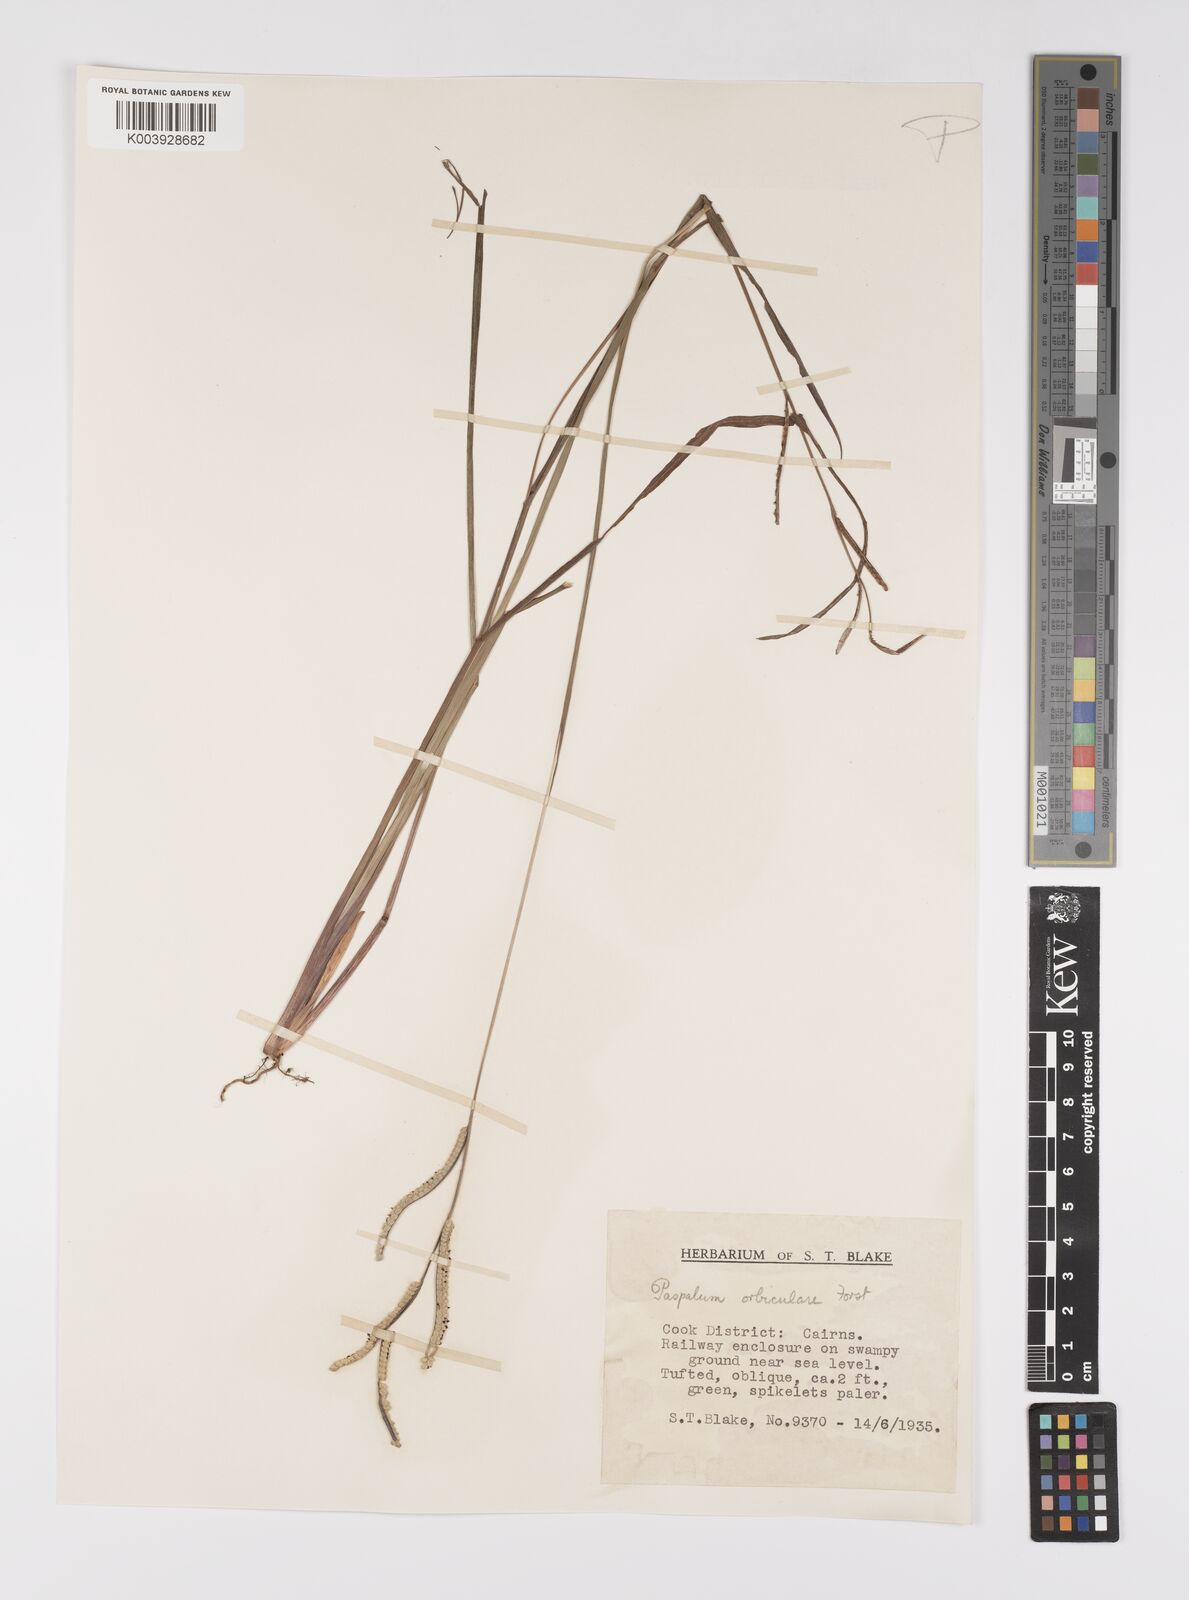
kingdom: Plantae
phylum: Tracheophyta
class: Liliopsida
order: Poales
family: Poaceae
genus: Paspalum
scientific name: Paspalum scrobiculatum
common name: Kodo millet
